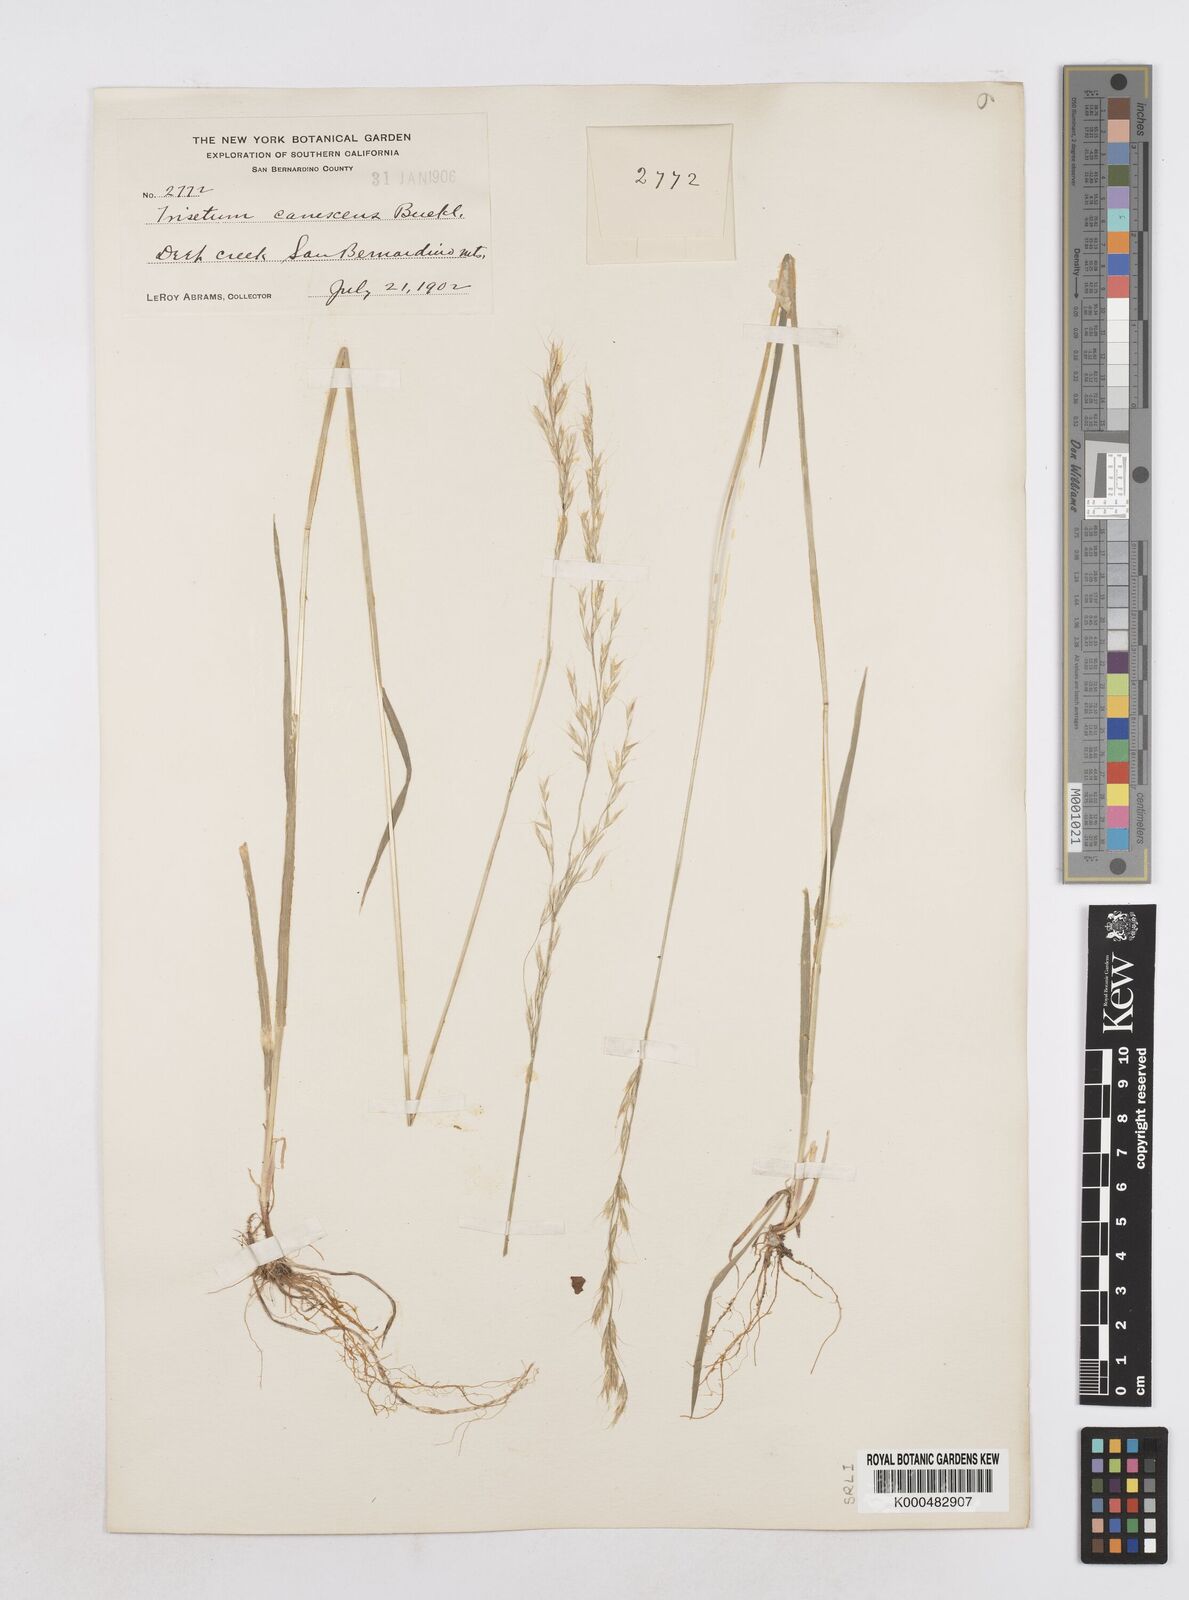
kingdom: Plantae
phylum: Tracheophyta
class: Liliopsida
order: Poales
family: Poaceae
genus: Graphephorum
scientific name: Graphephorum canescens
